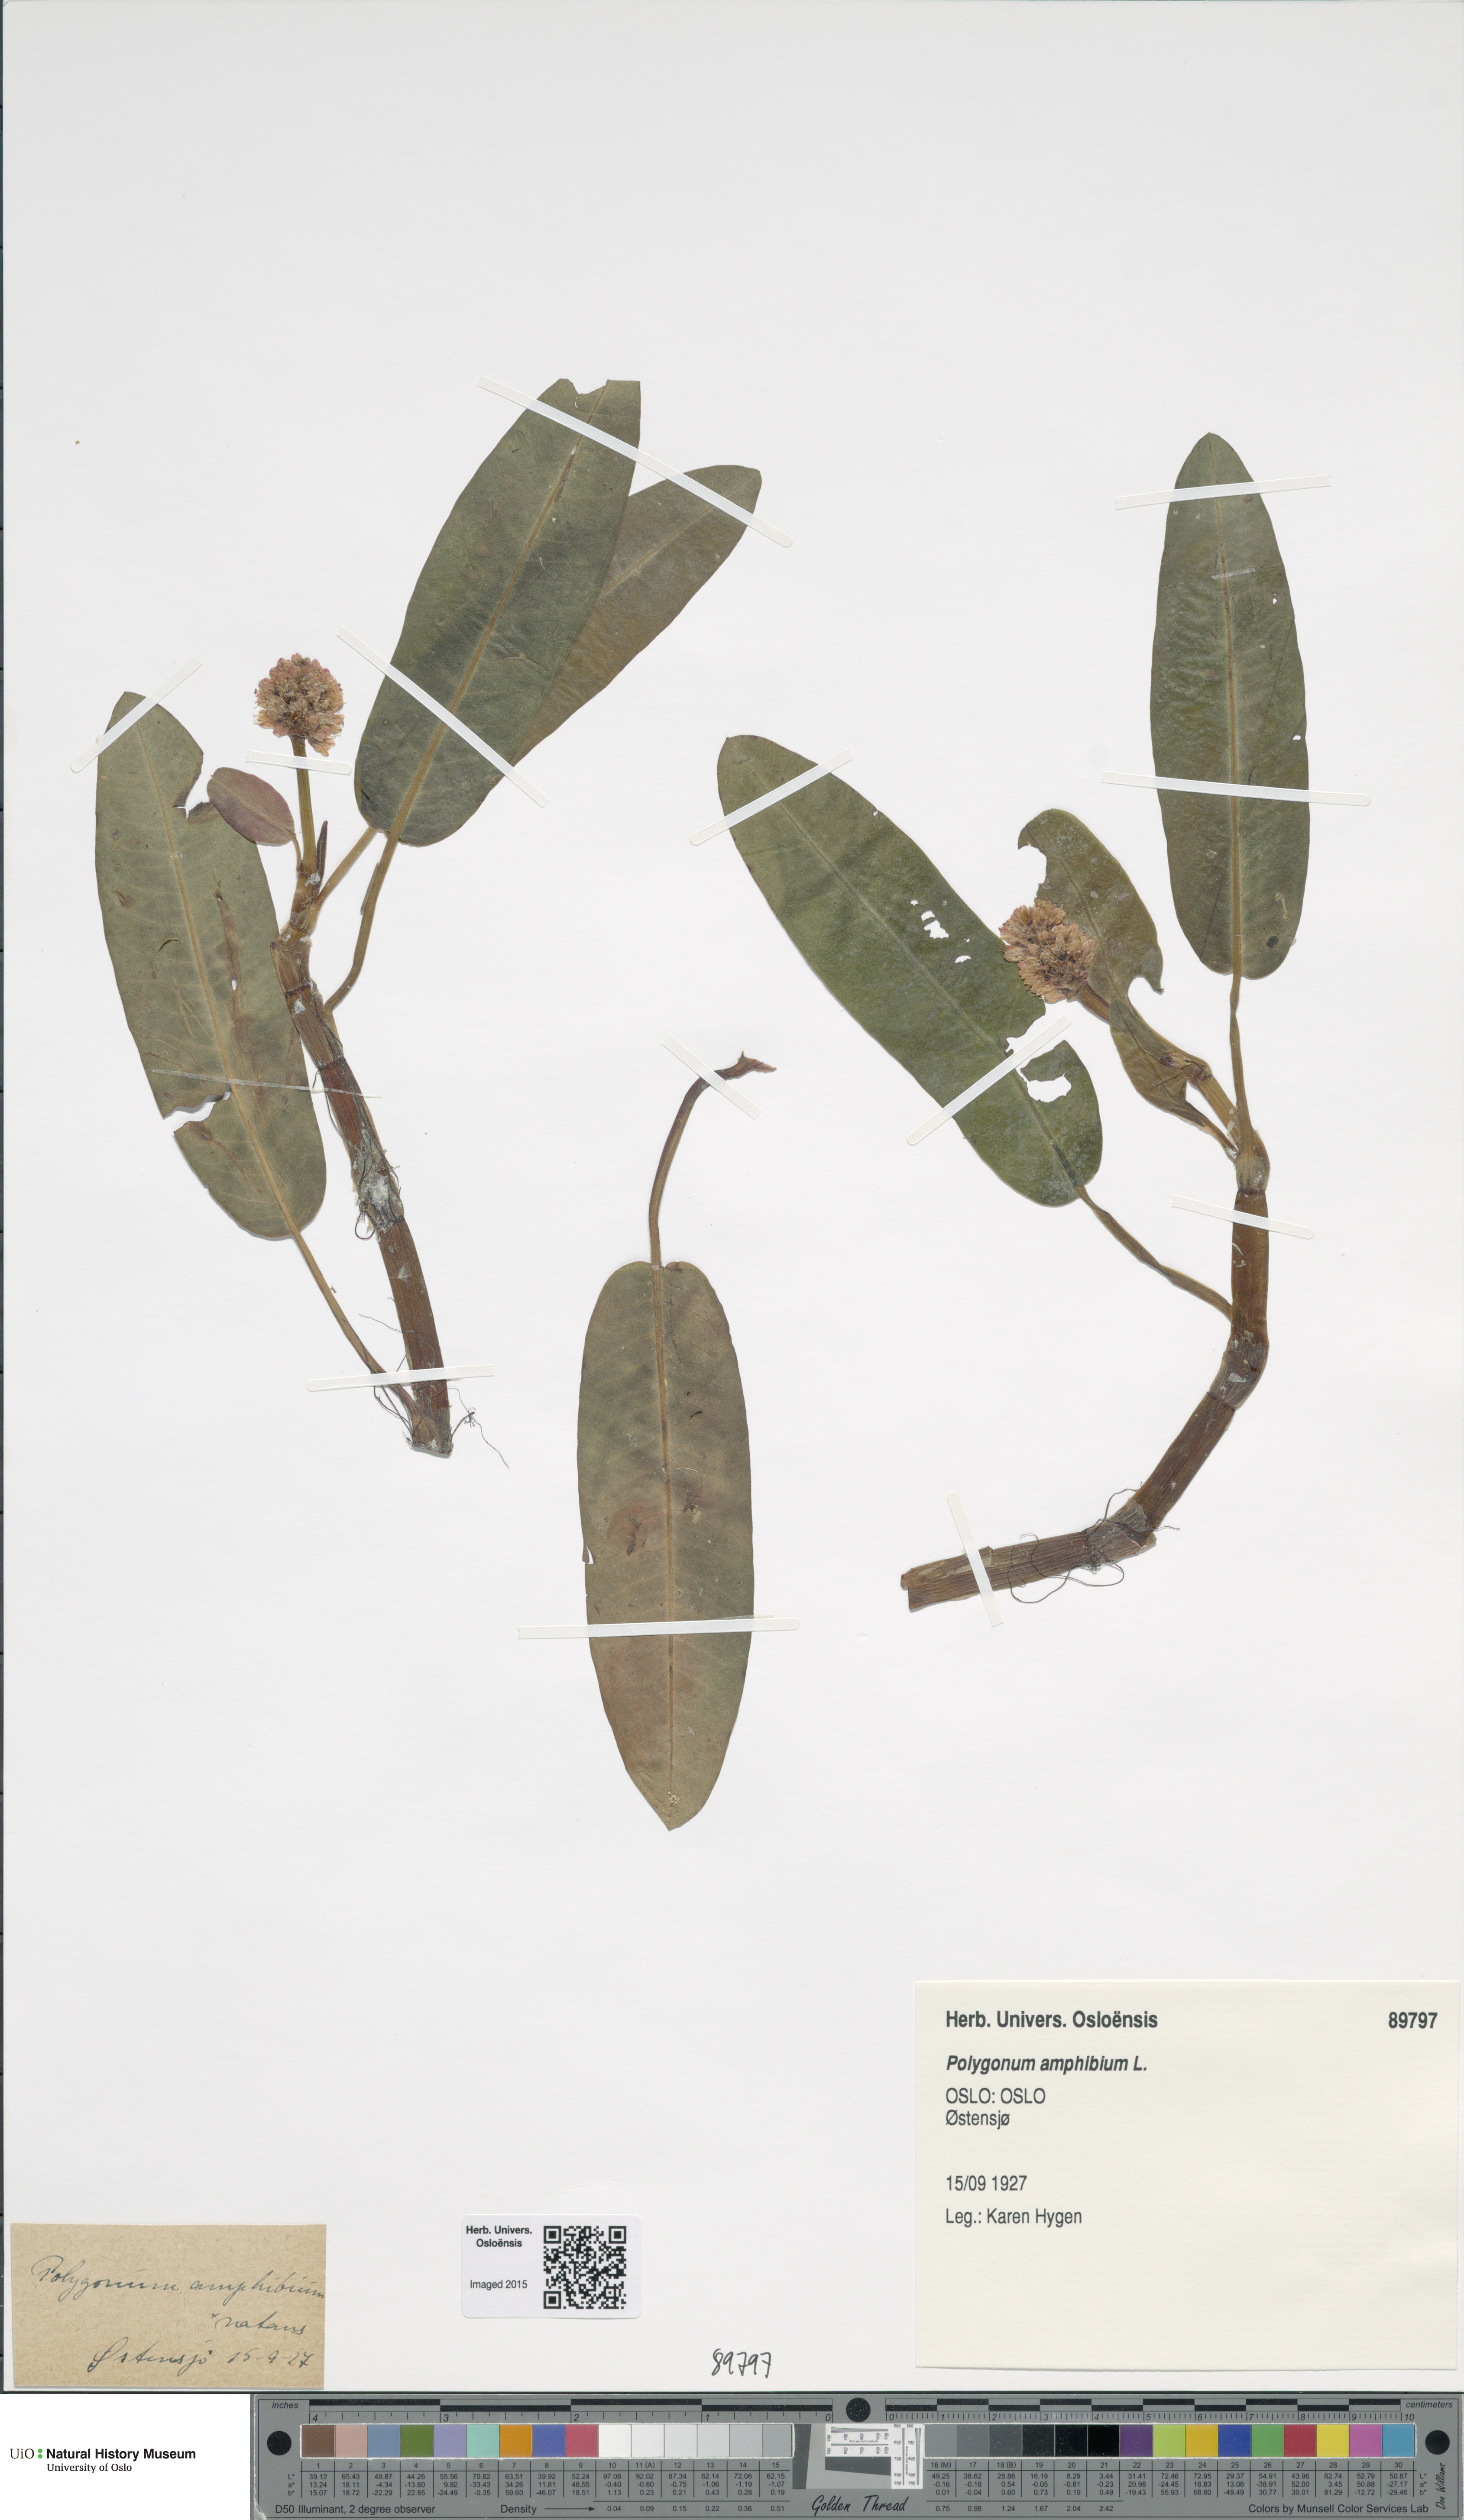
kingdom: Plantae
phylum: Tracheophyta
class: Magnoliopsida
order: Caryophyllales
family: Polygonaceae
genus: Persicaria
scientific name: Persicaria amphibia
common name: Amphibious bistort
